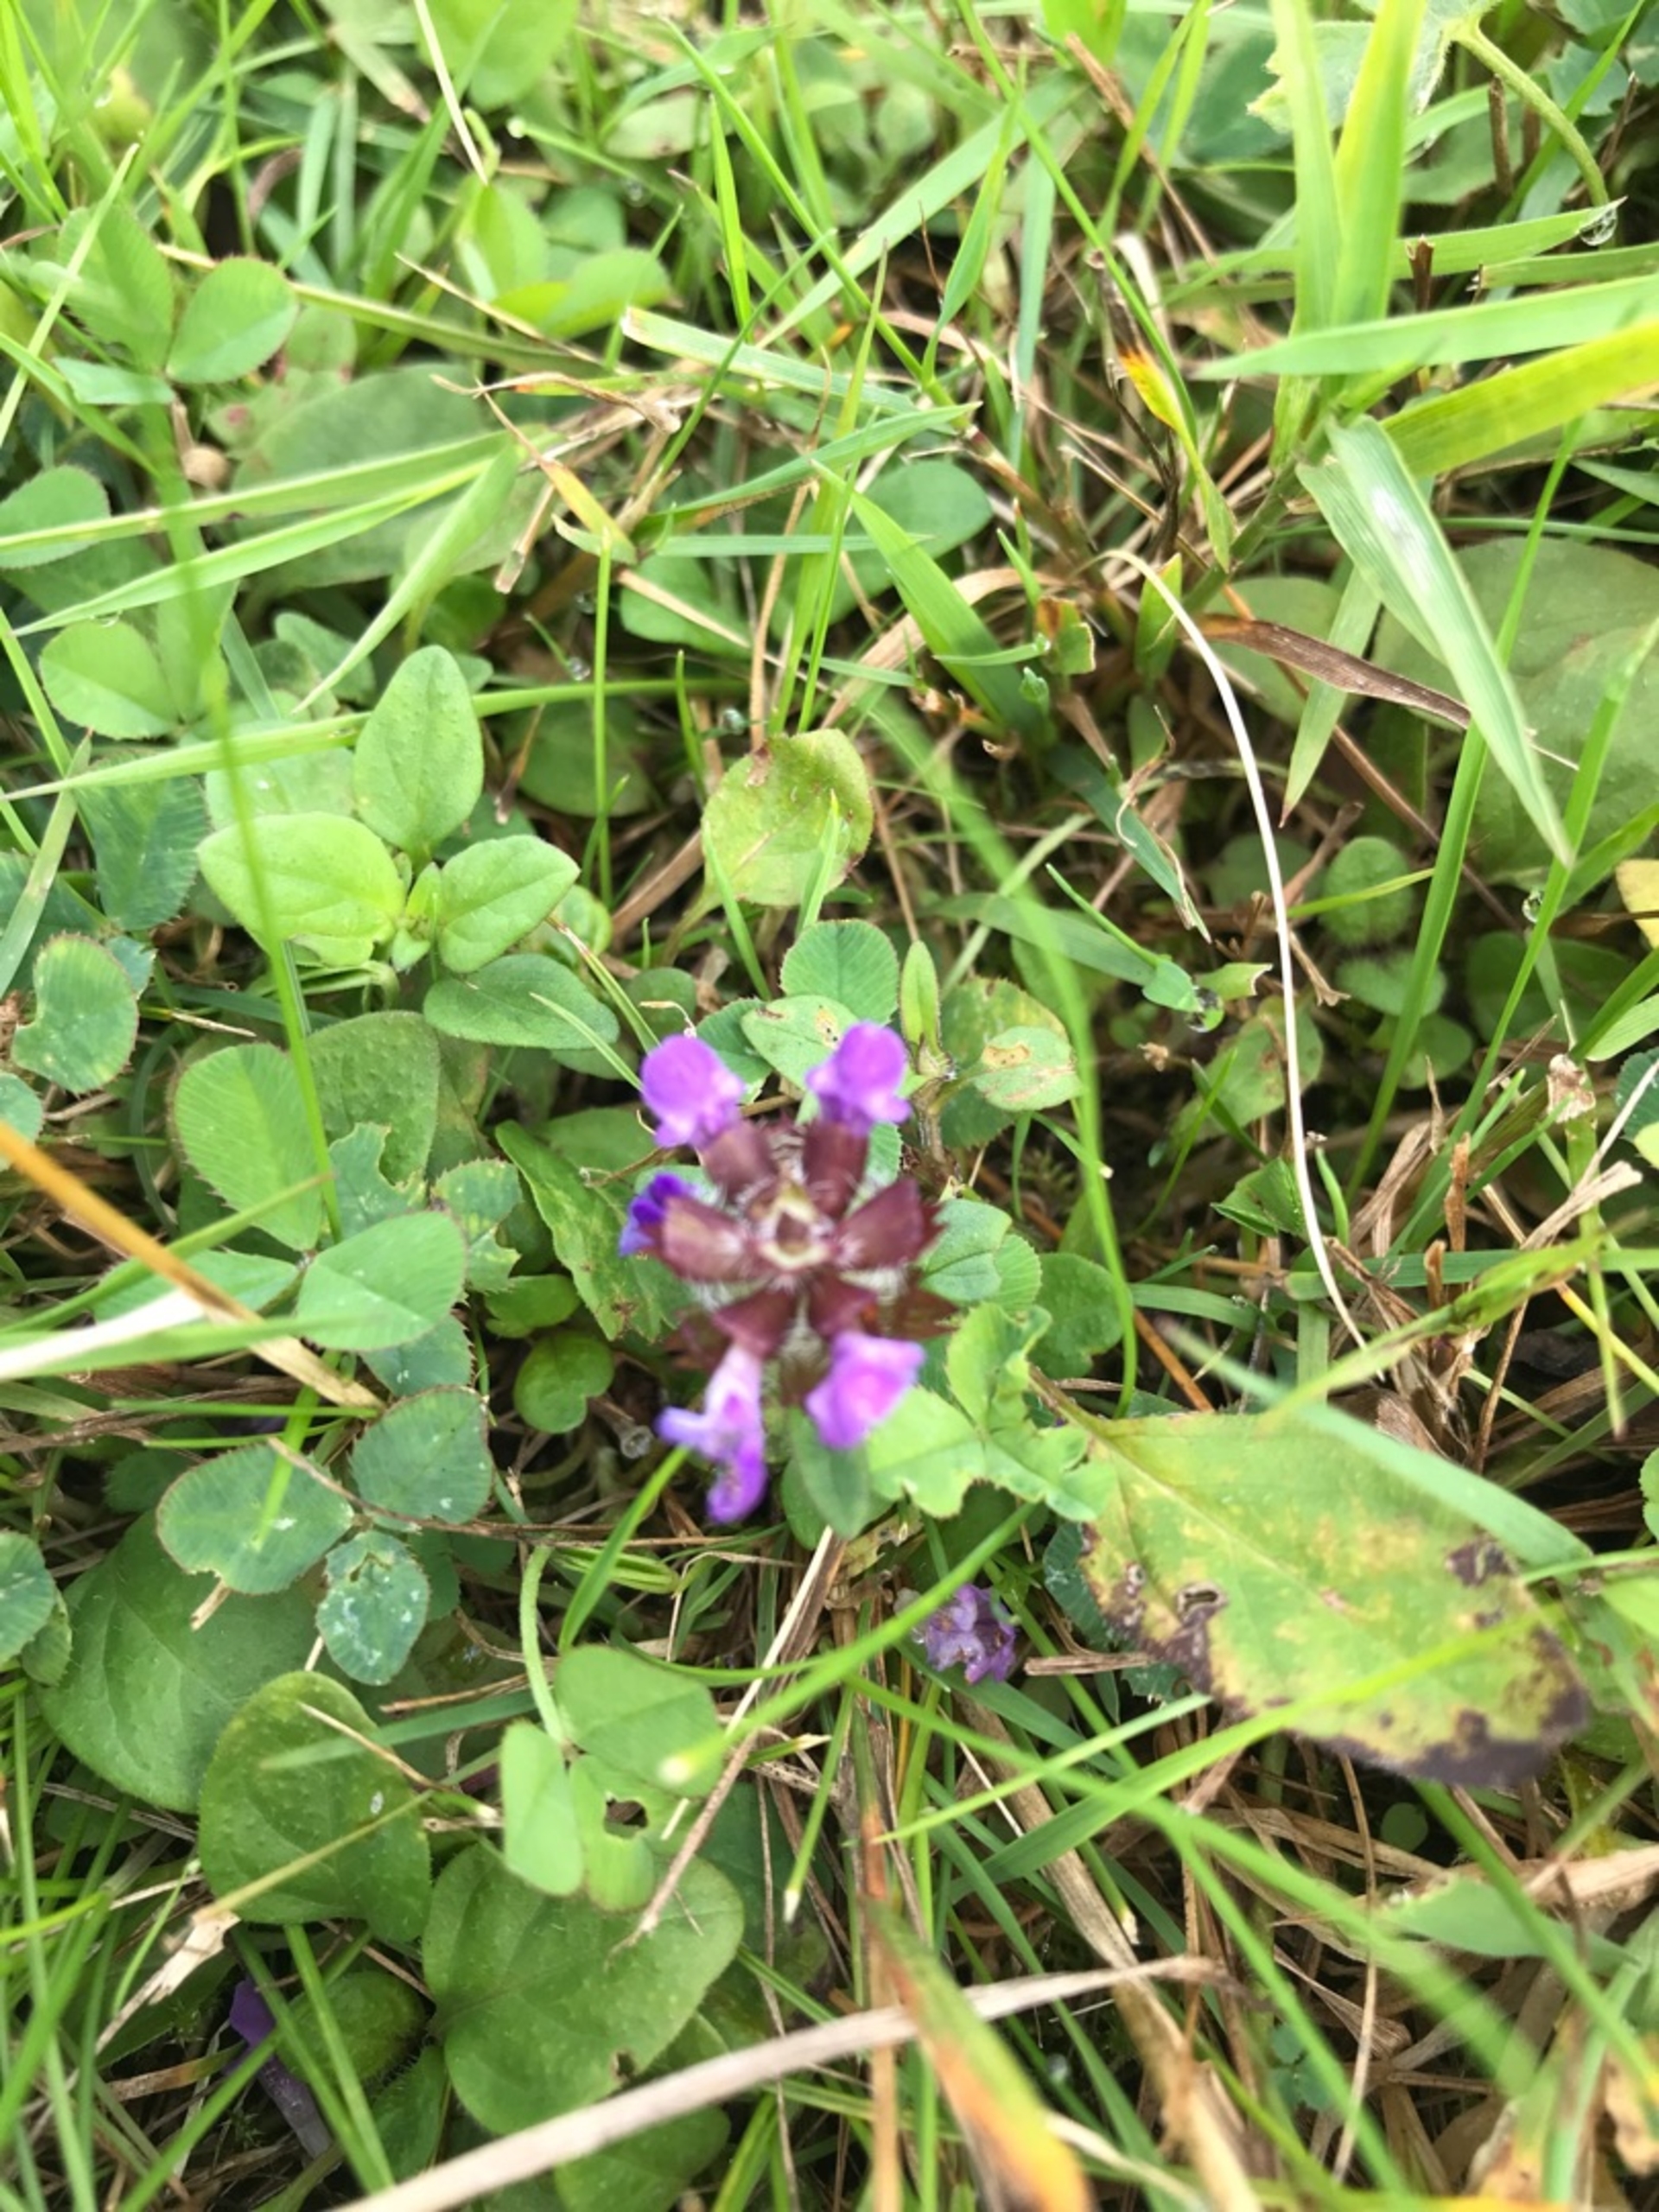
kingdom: Plantae
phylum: Tracheophyta
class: Magnoliopsida
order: Lamiales
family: Lamiaceae
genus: Prunella
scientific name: Prunella vulgaris
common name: Almindelig brunelle
